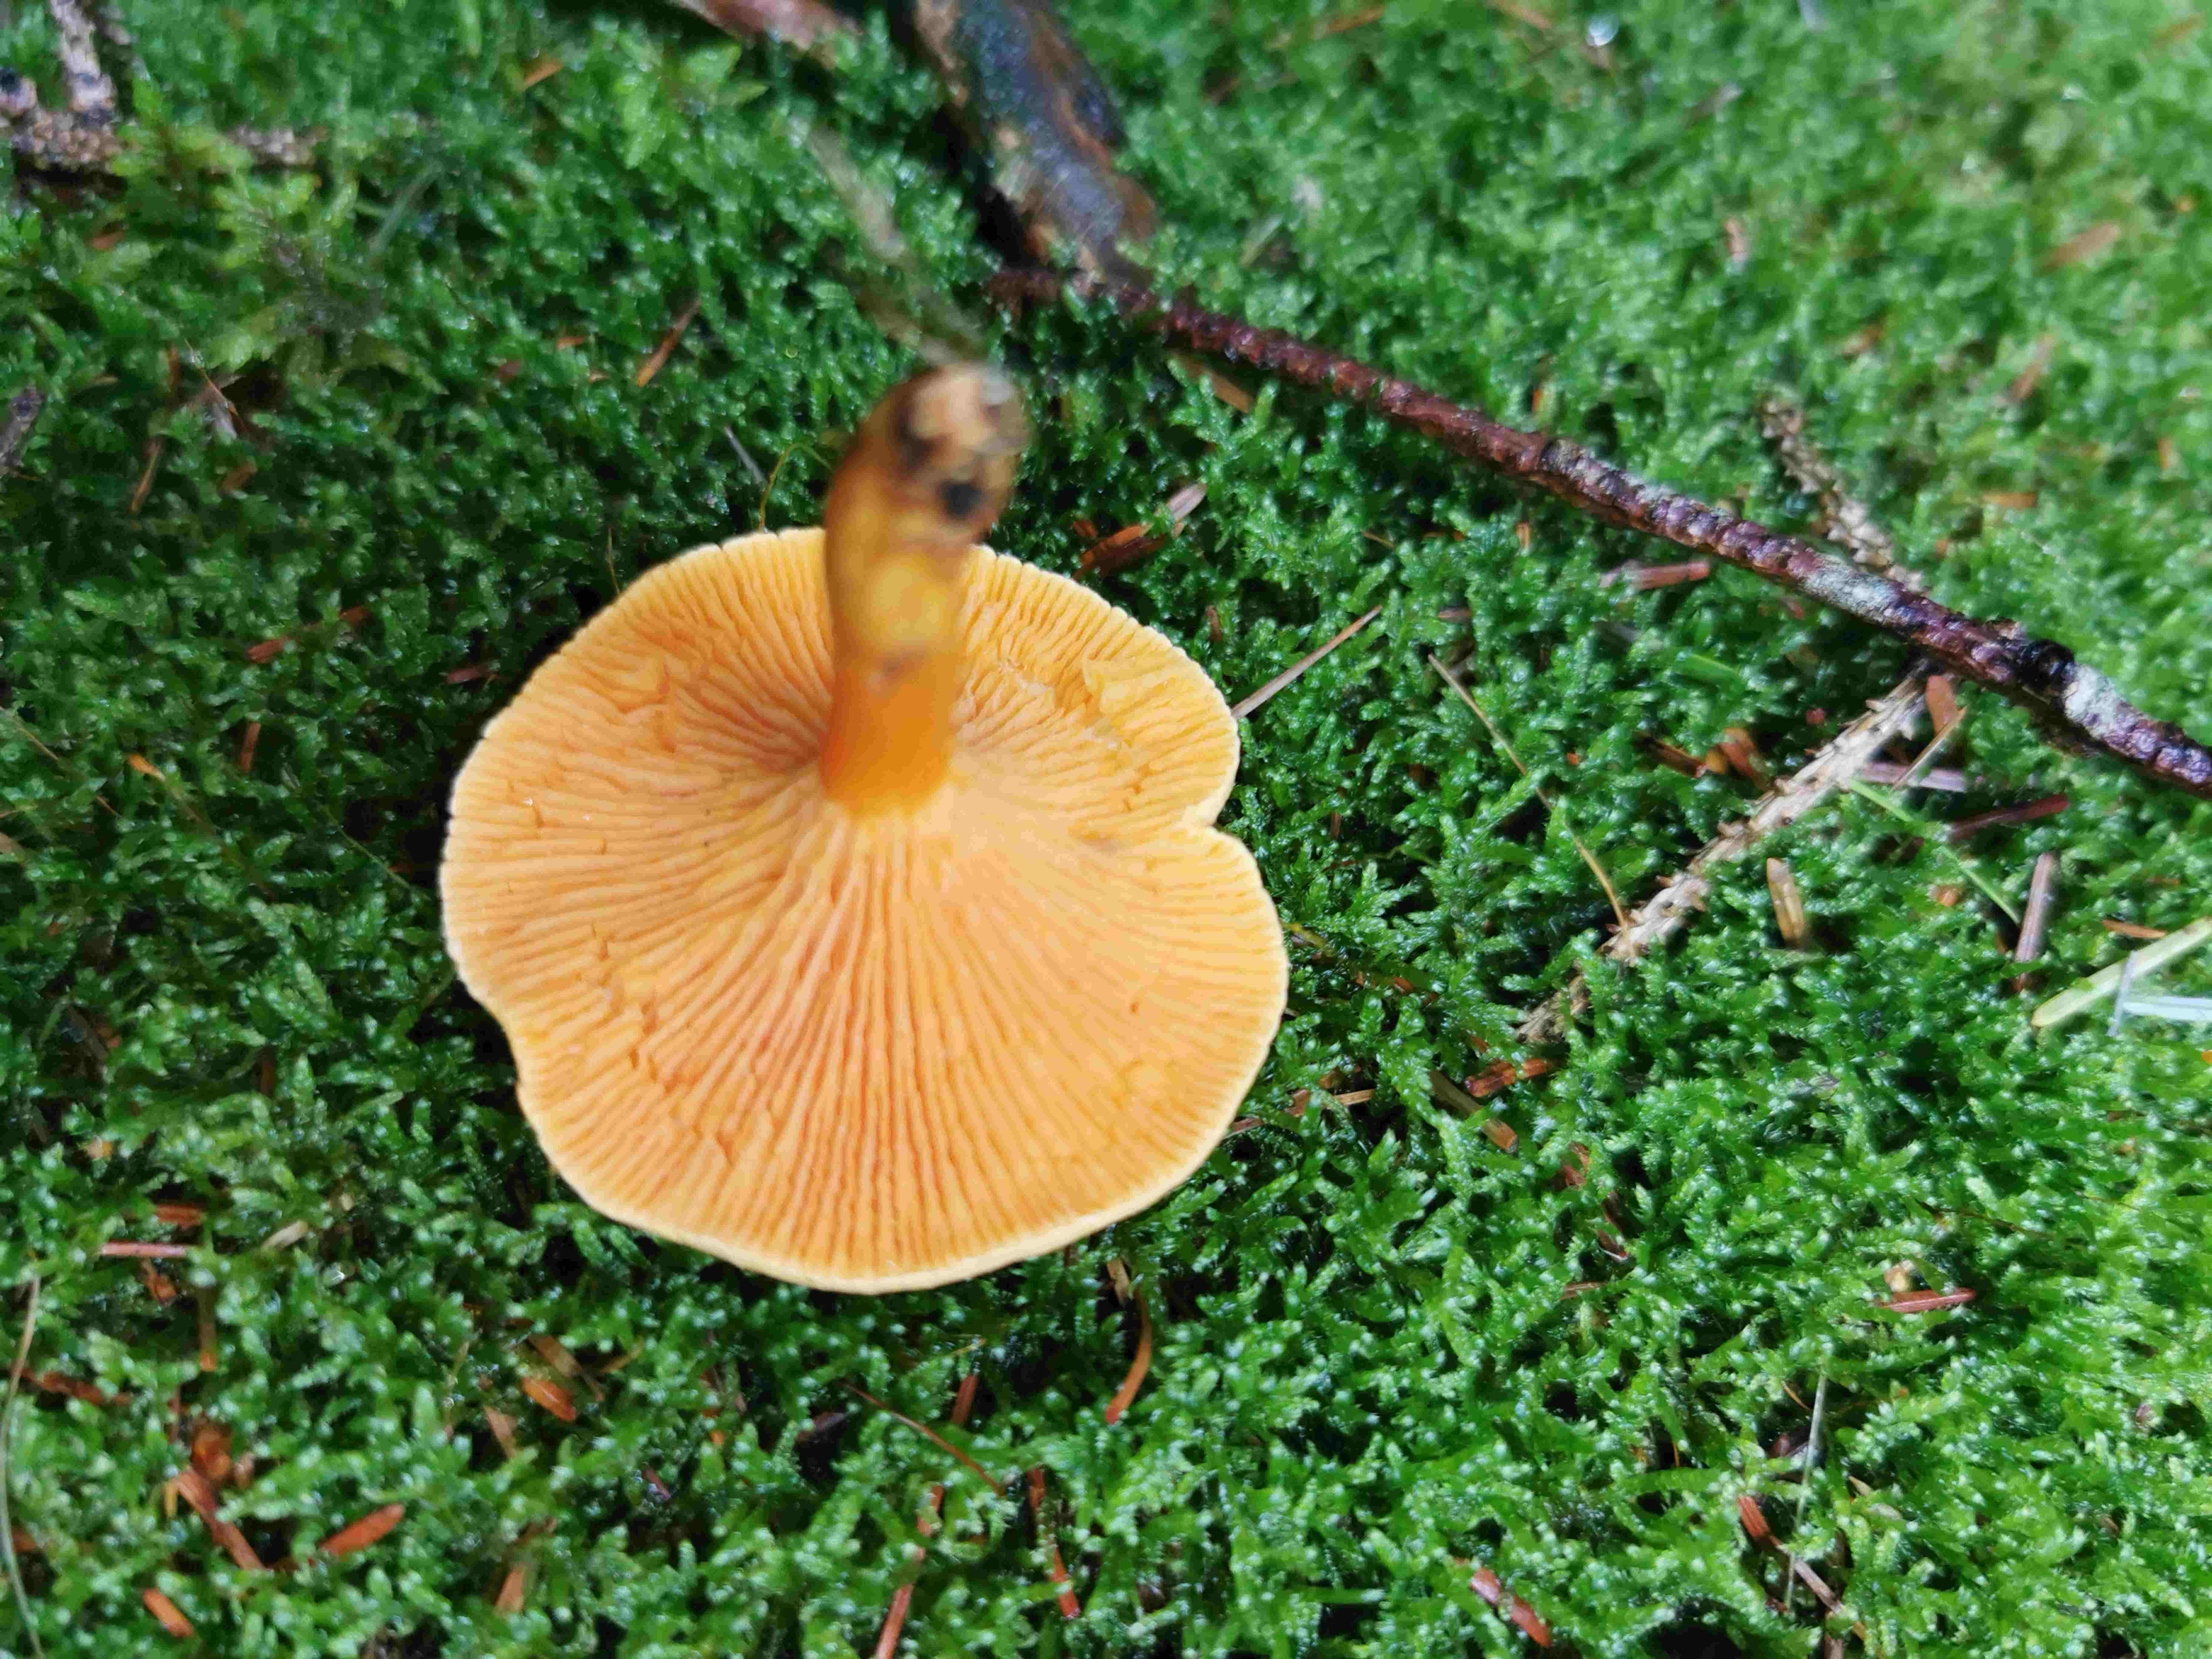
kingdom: Fungi
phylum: Basidiomycota
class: Agaricomycetes
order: Boletales
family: Hygrophoropsidaceae
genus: Hygrophoropsis
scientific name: Hygrophoropsis aurantiaca
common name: almindelig orangekantarel
